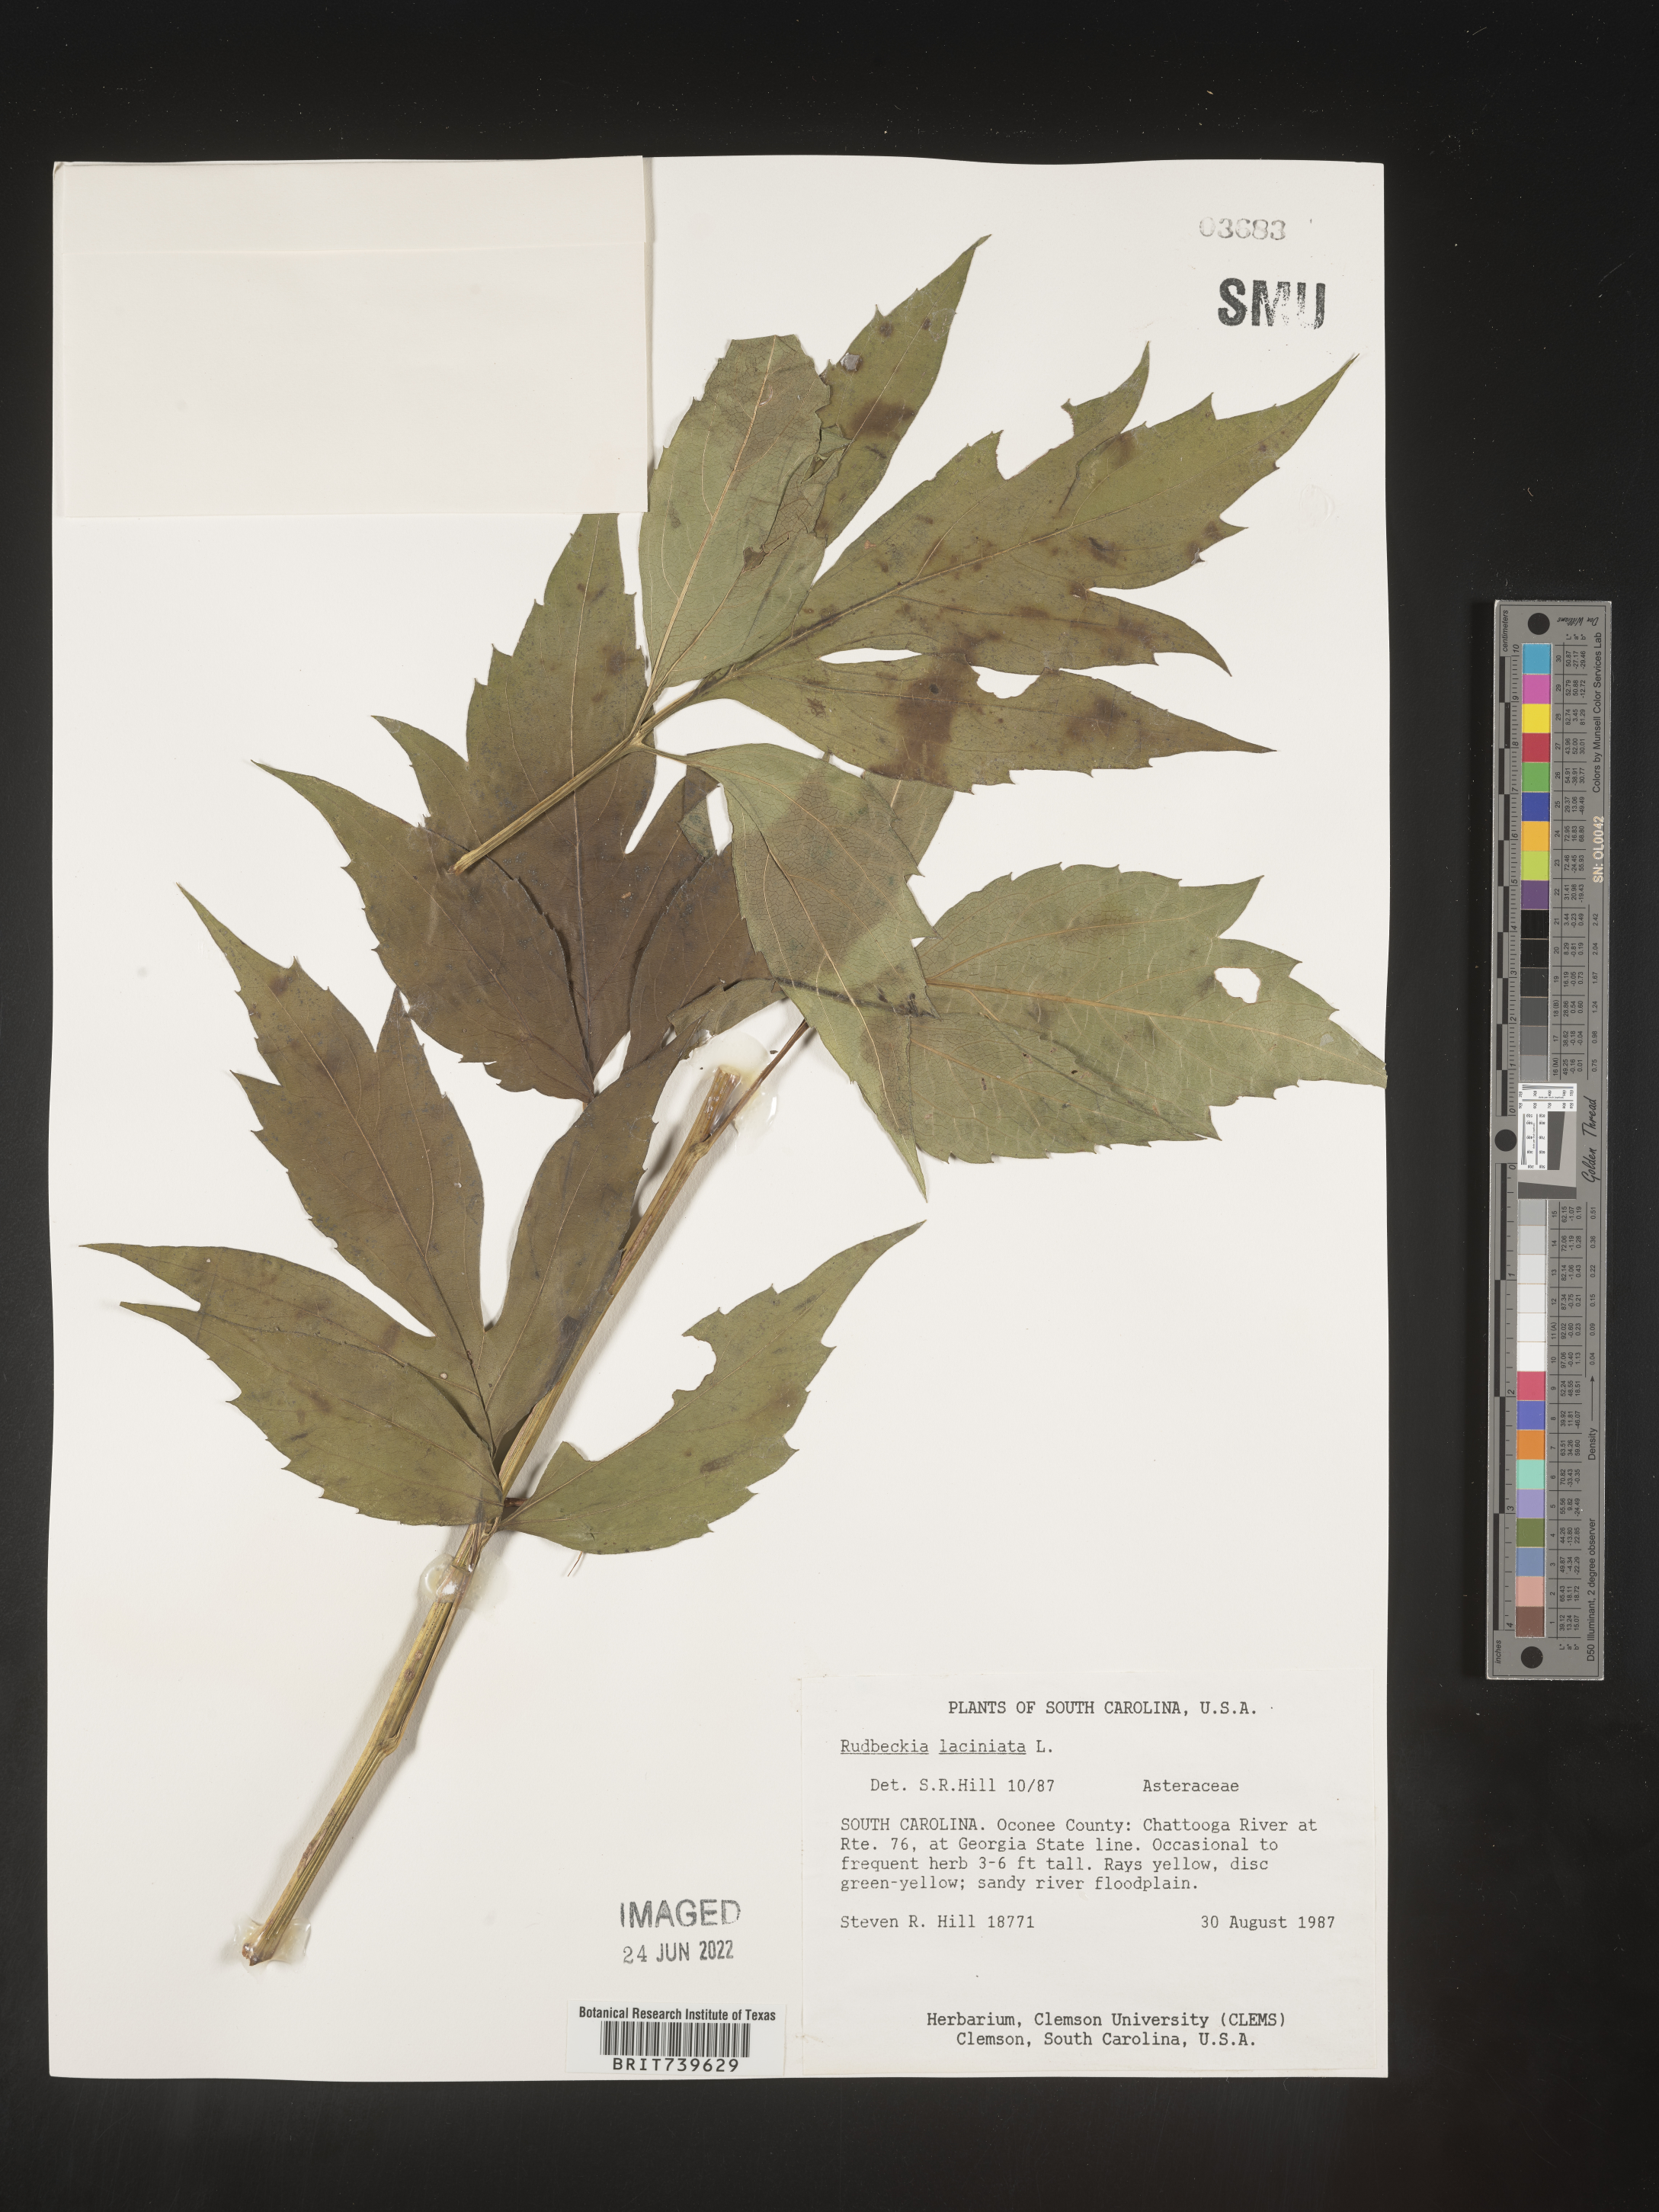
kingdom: Plantae
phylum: Tracheophyta
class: Magnoliopsida
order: Asterales
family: Asteraceae
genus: Rudbeckia
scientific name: Rudbeckia laciniata
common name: Coneflower
